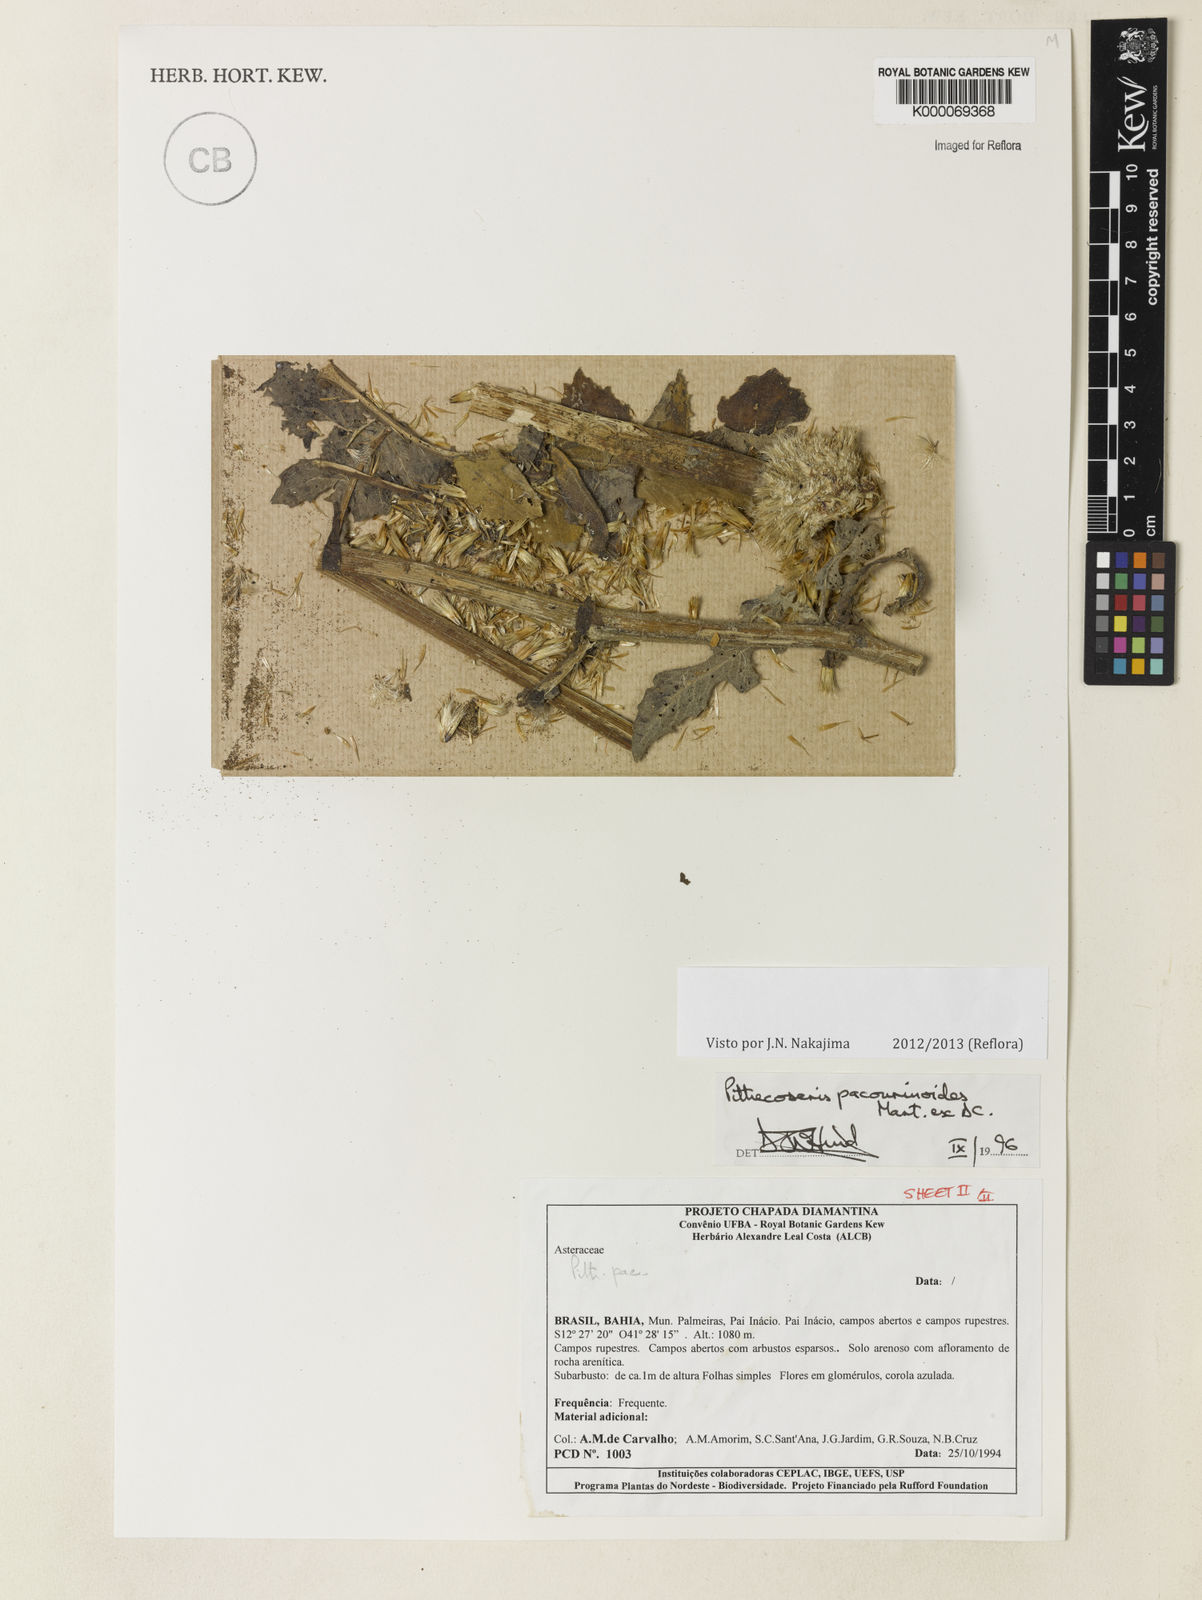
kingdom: Plantae
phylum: Tracheophyta
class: Magnoliopsida
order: Asterales
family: Asteraceae
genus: Chresta
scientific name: Chresta pacourinoides
